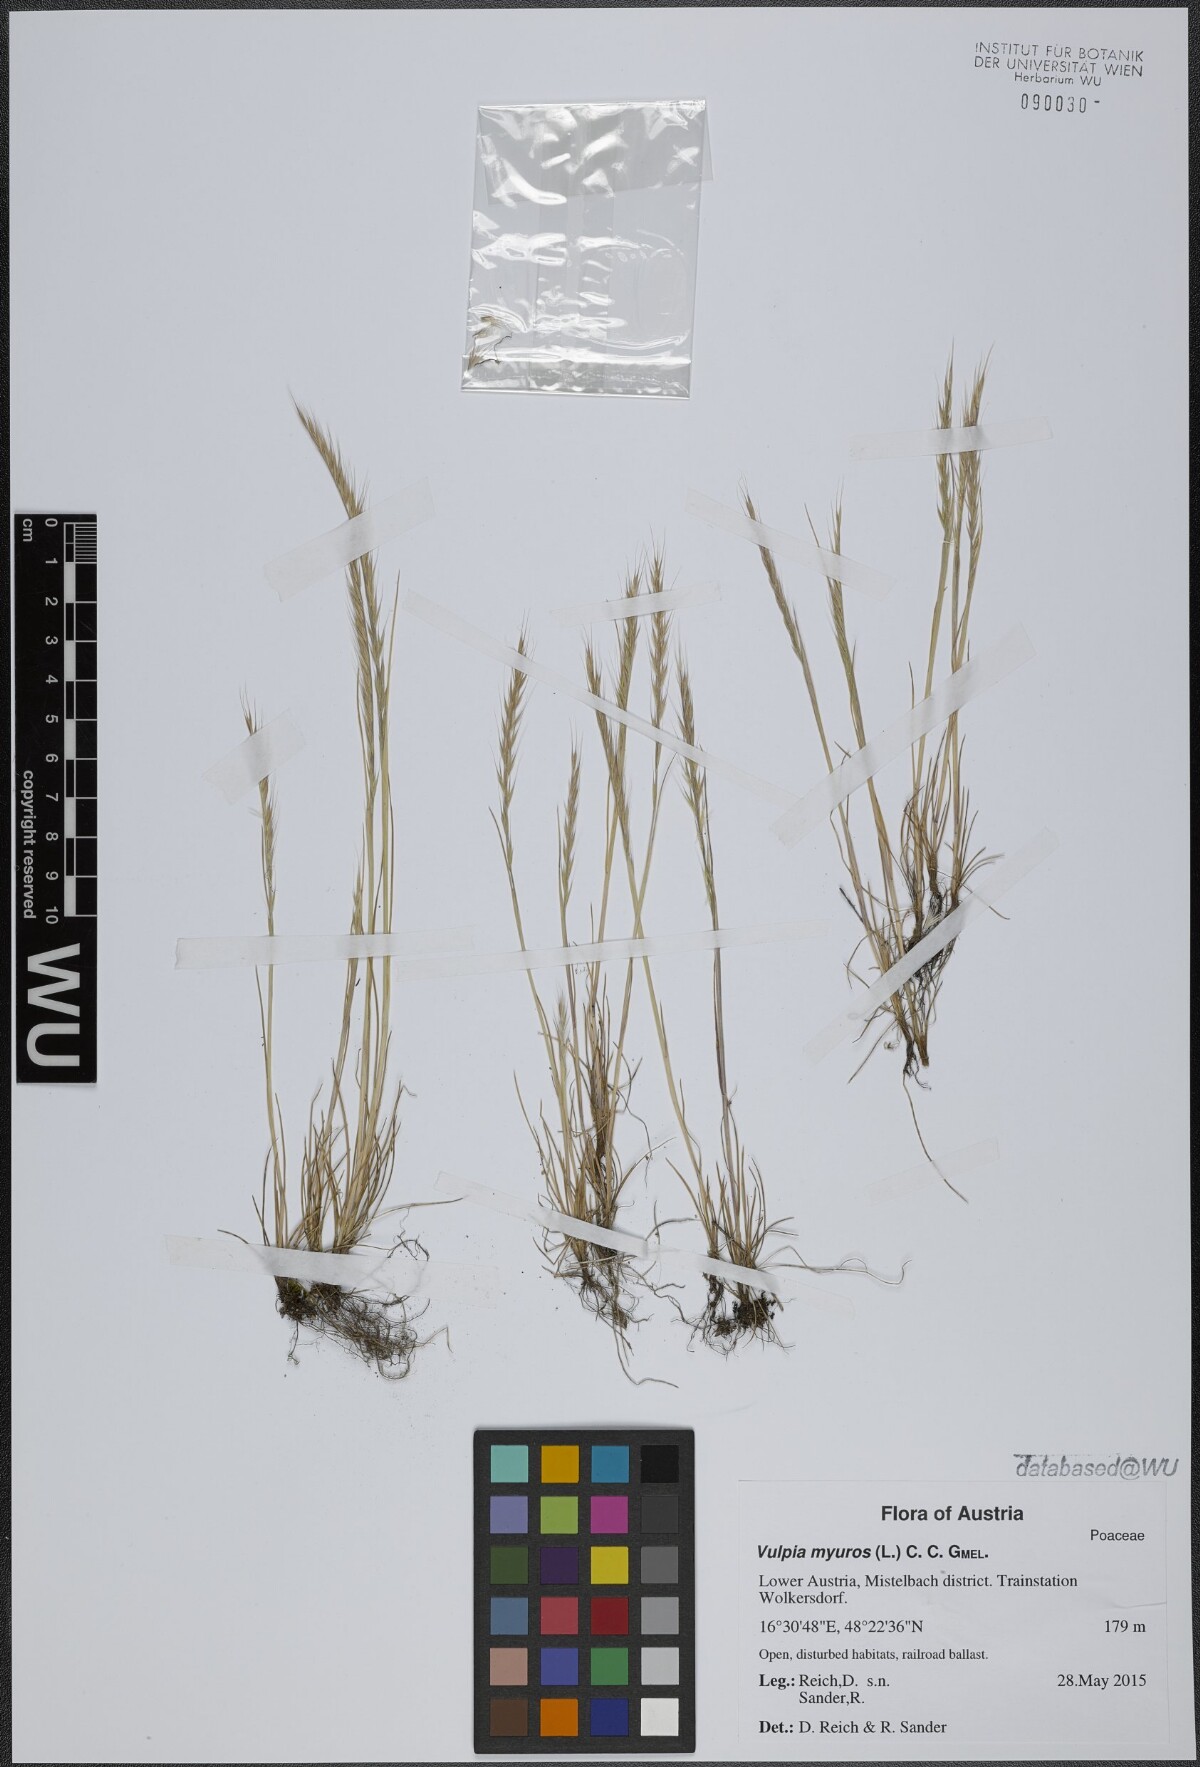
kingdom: Plantae
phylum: Tracheophyta
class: Liliopsida
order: Poales
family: Poaceae
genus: Festuca
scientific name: Festuca myuros
